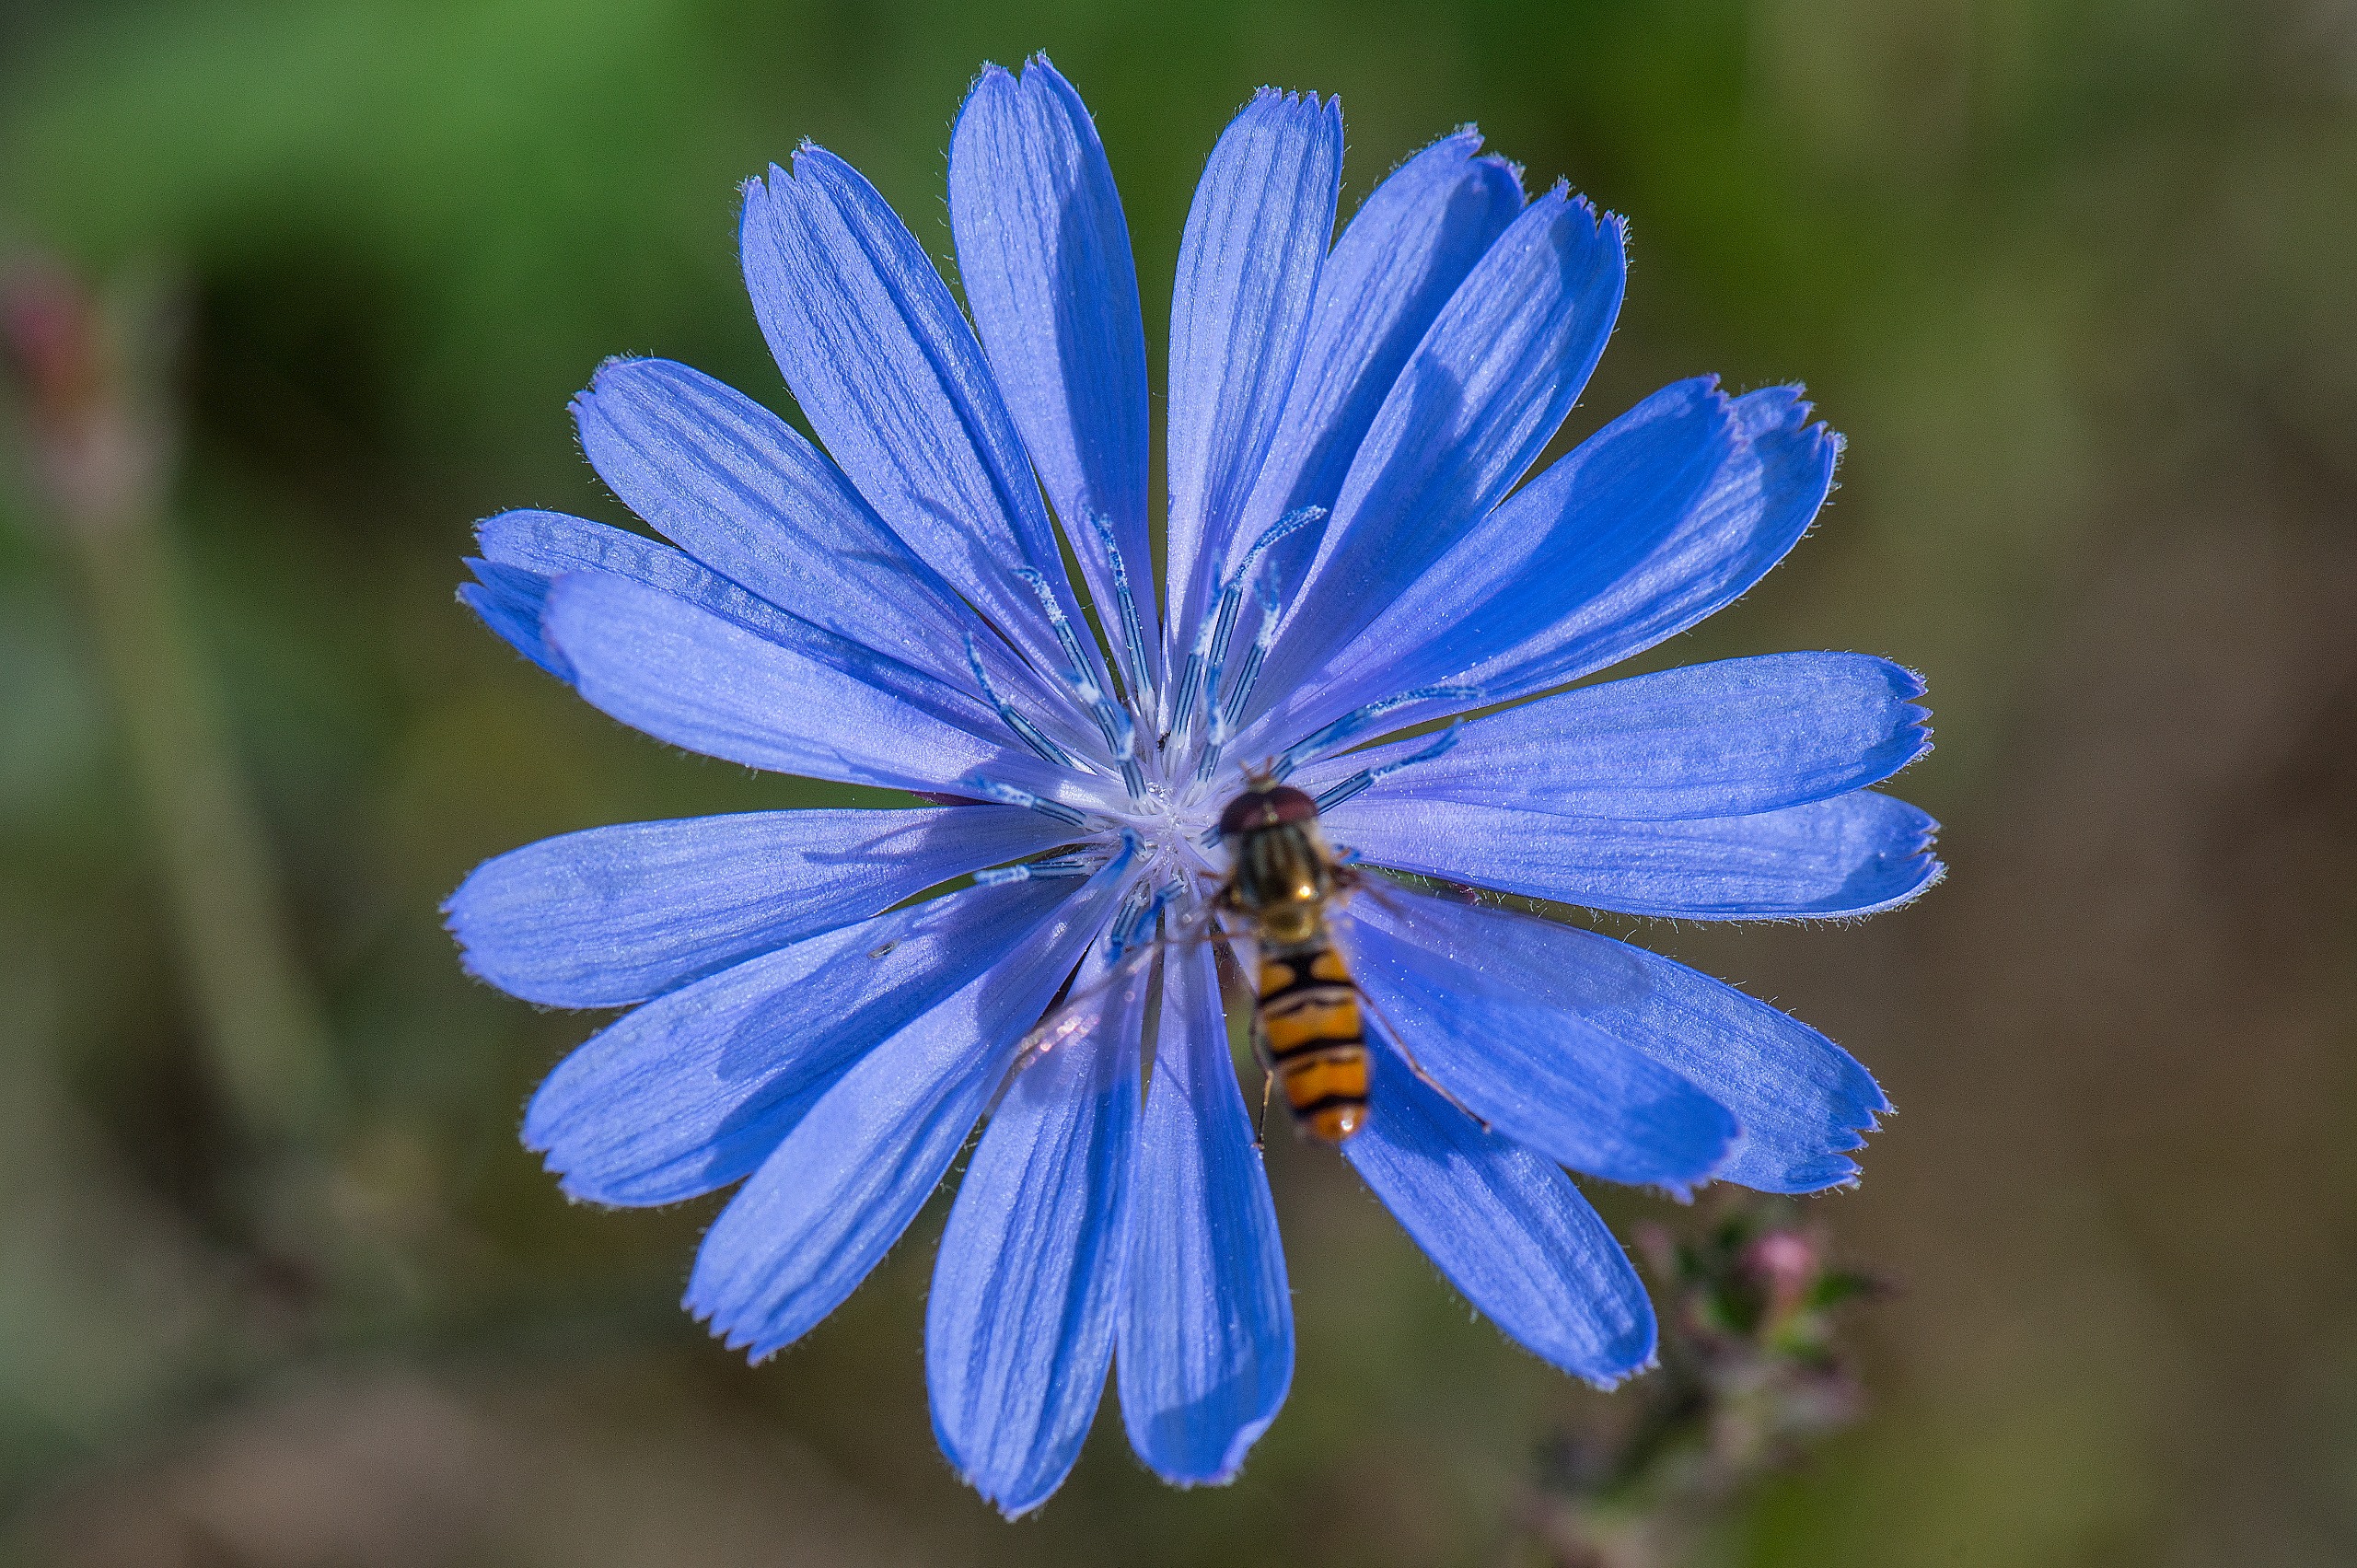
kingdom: Plantae
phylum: Tracheophyta
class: Magnoliopsida
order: Asterales
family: Asteraceae
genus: Cichorium
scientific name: Cichorium intybus
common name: Cikorie
